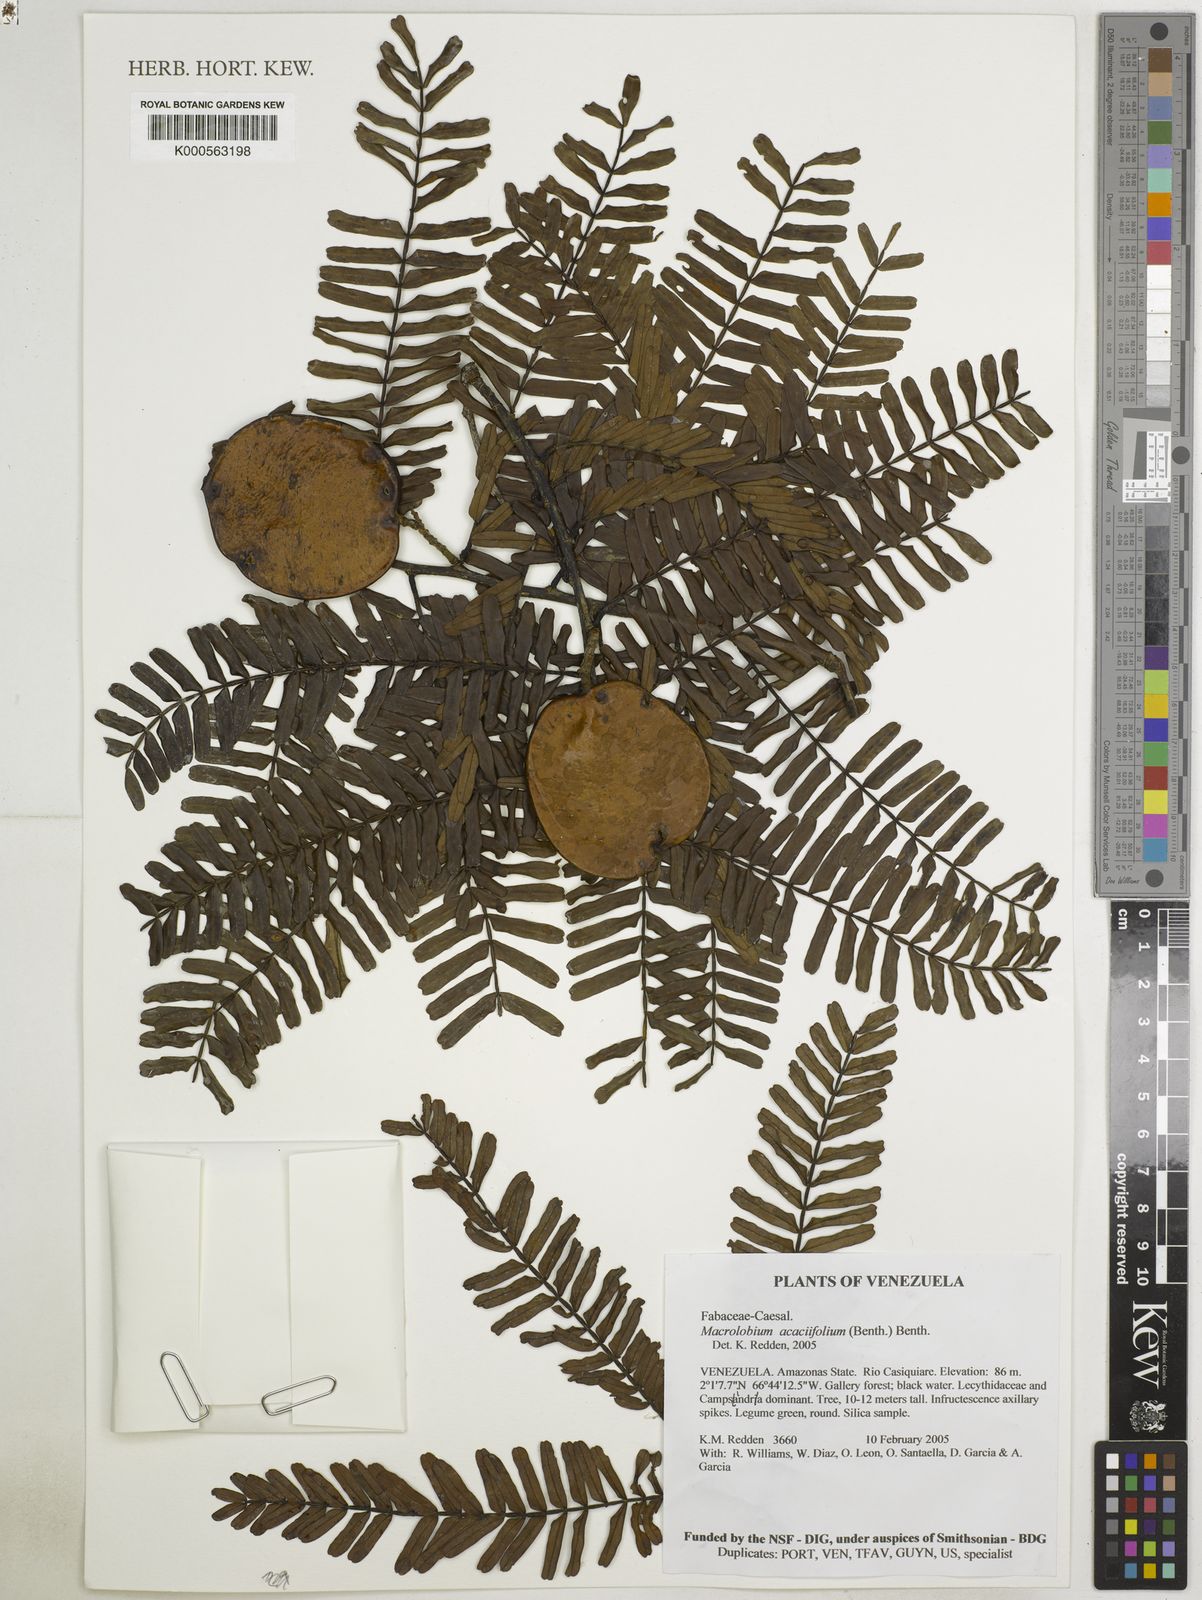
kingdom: Plantae
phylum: Tracheophyta
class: Magnoliopsida
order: Fabales
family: Fabaceae
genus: Macrolobium
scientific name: Macrolobium acaciifolium
